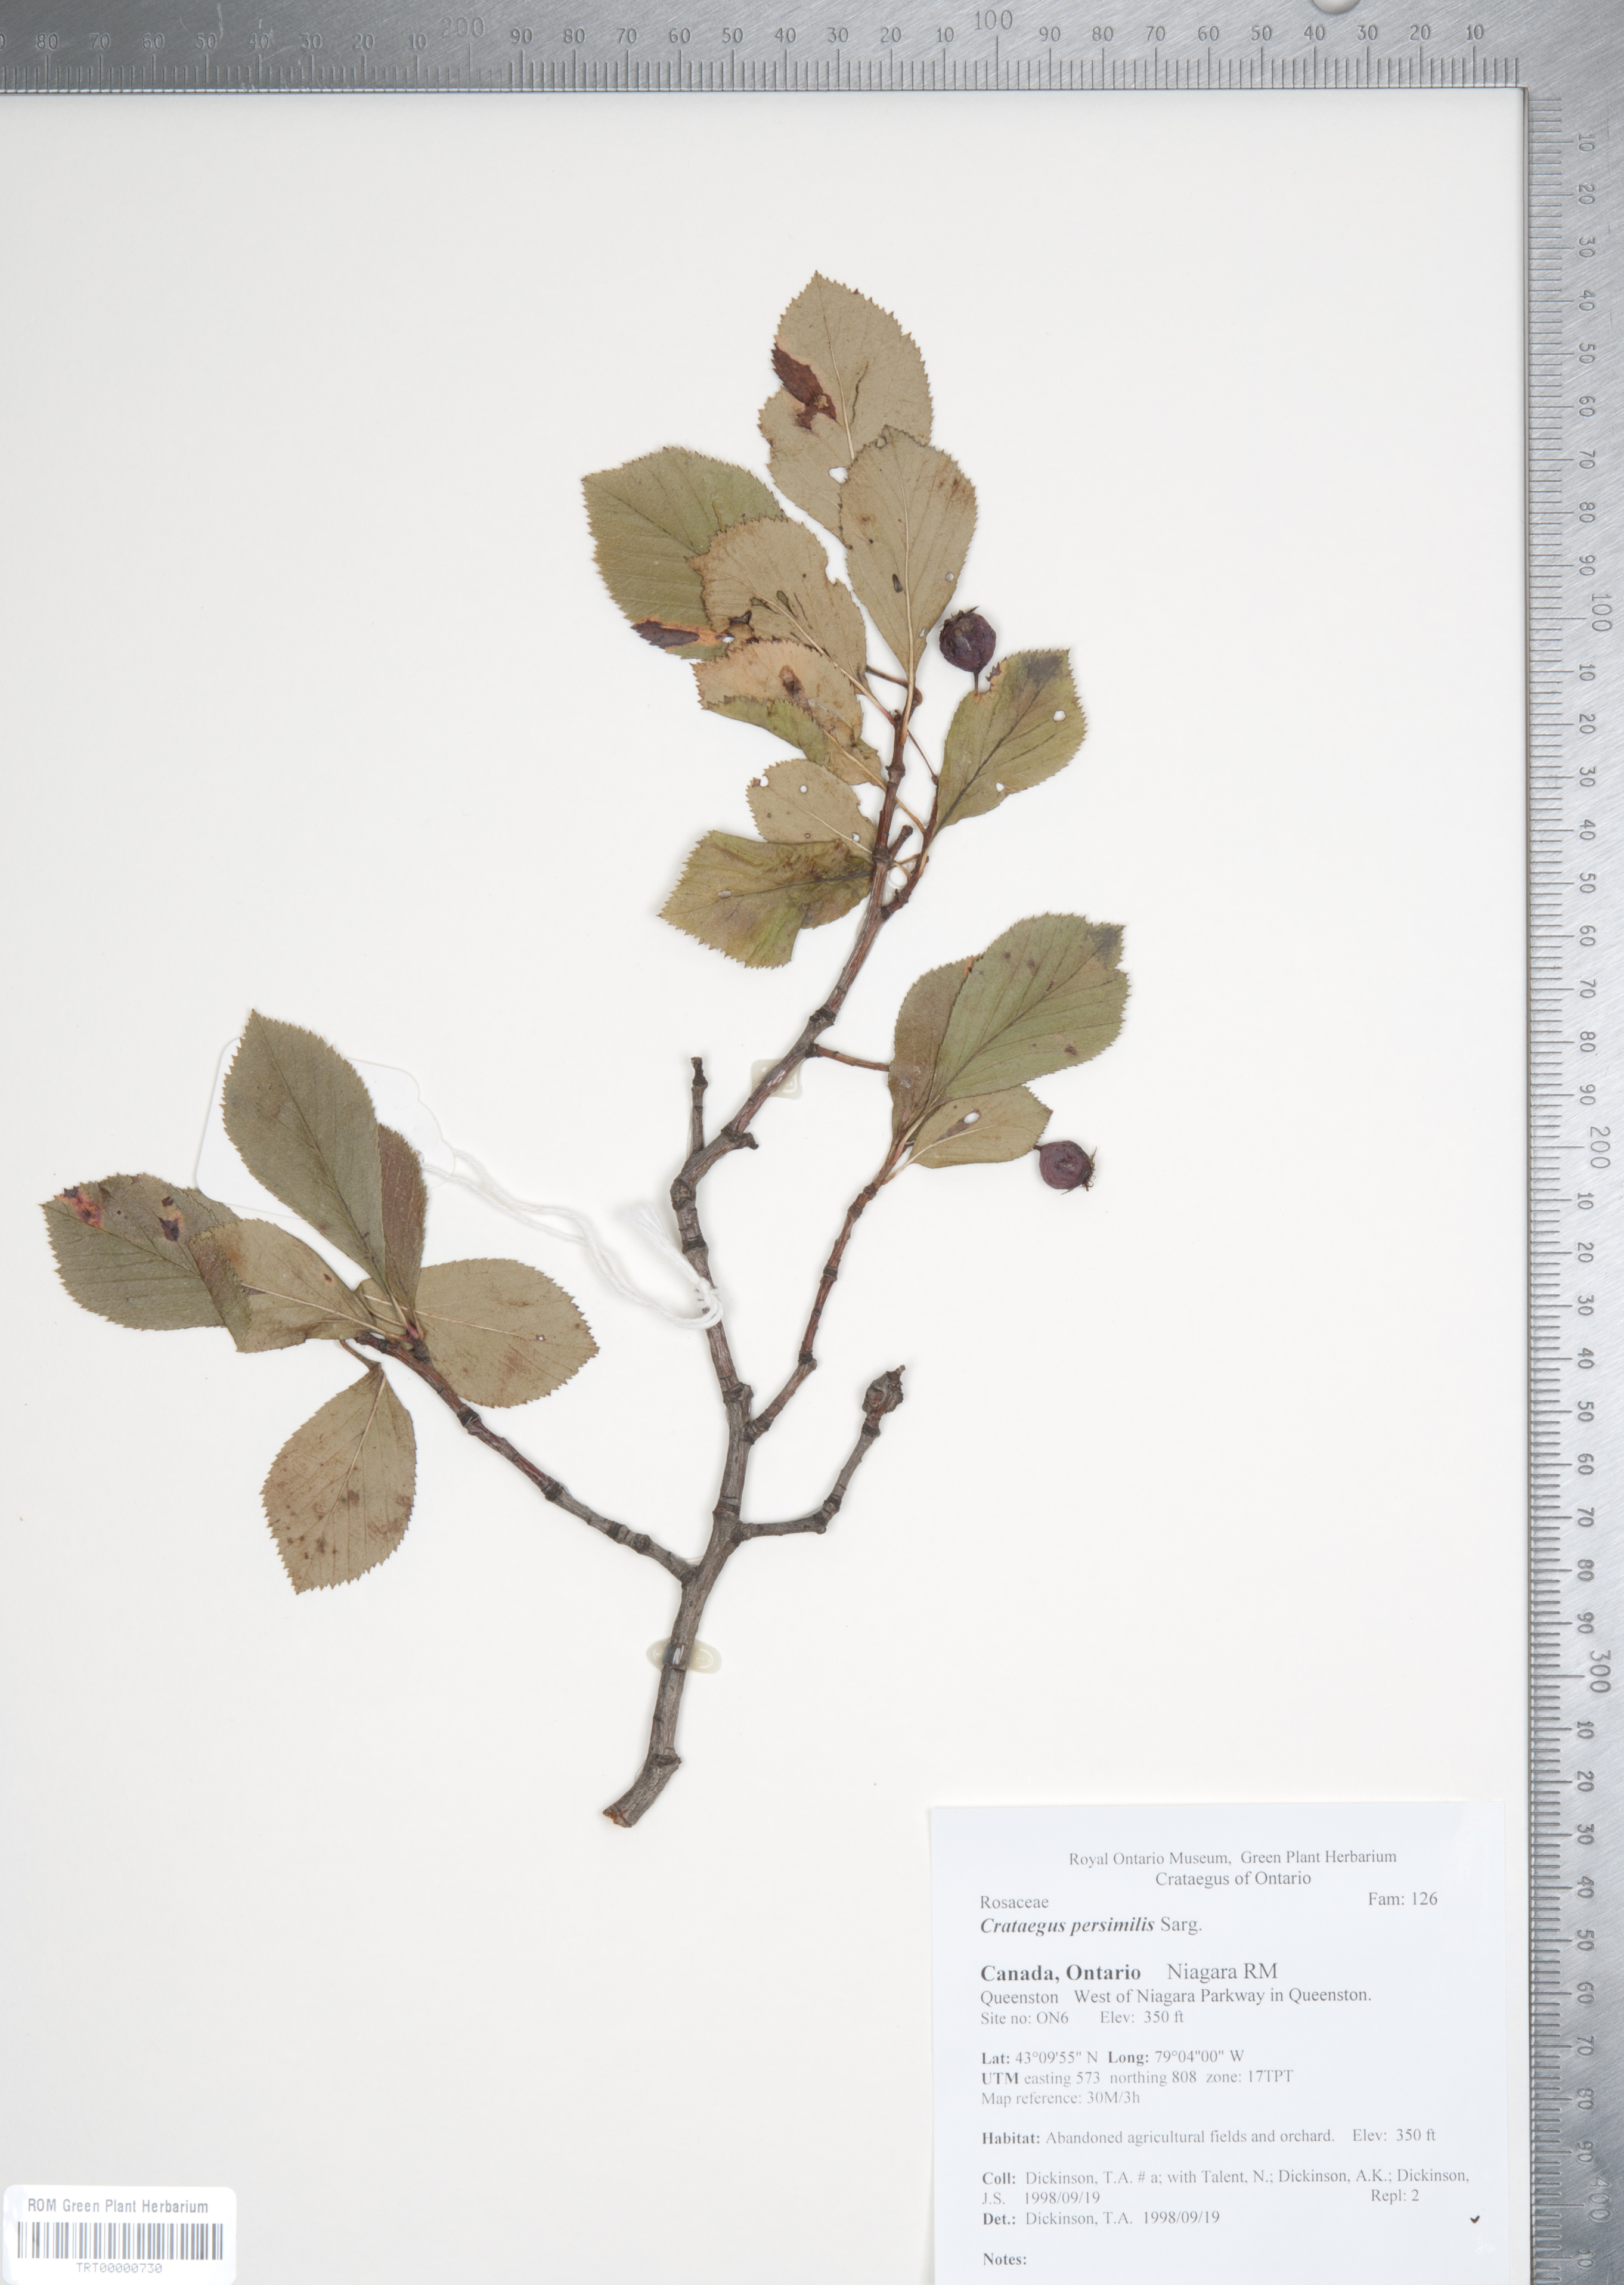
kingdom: Plantae
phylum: Tracheophyta
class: Magnoliopsida
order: Rosales
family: Rosaceae
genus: Crataegus
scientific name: Crataegus persimilis
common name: Broad-leaved cockspurthorn
